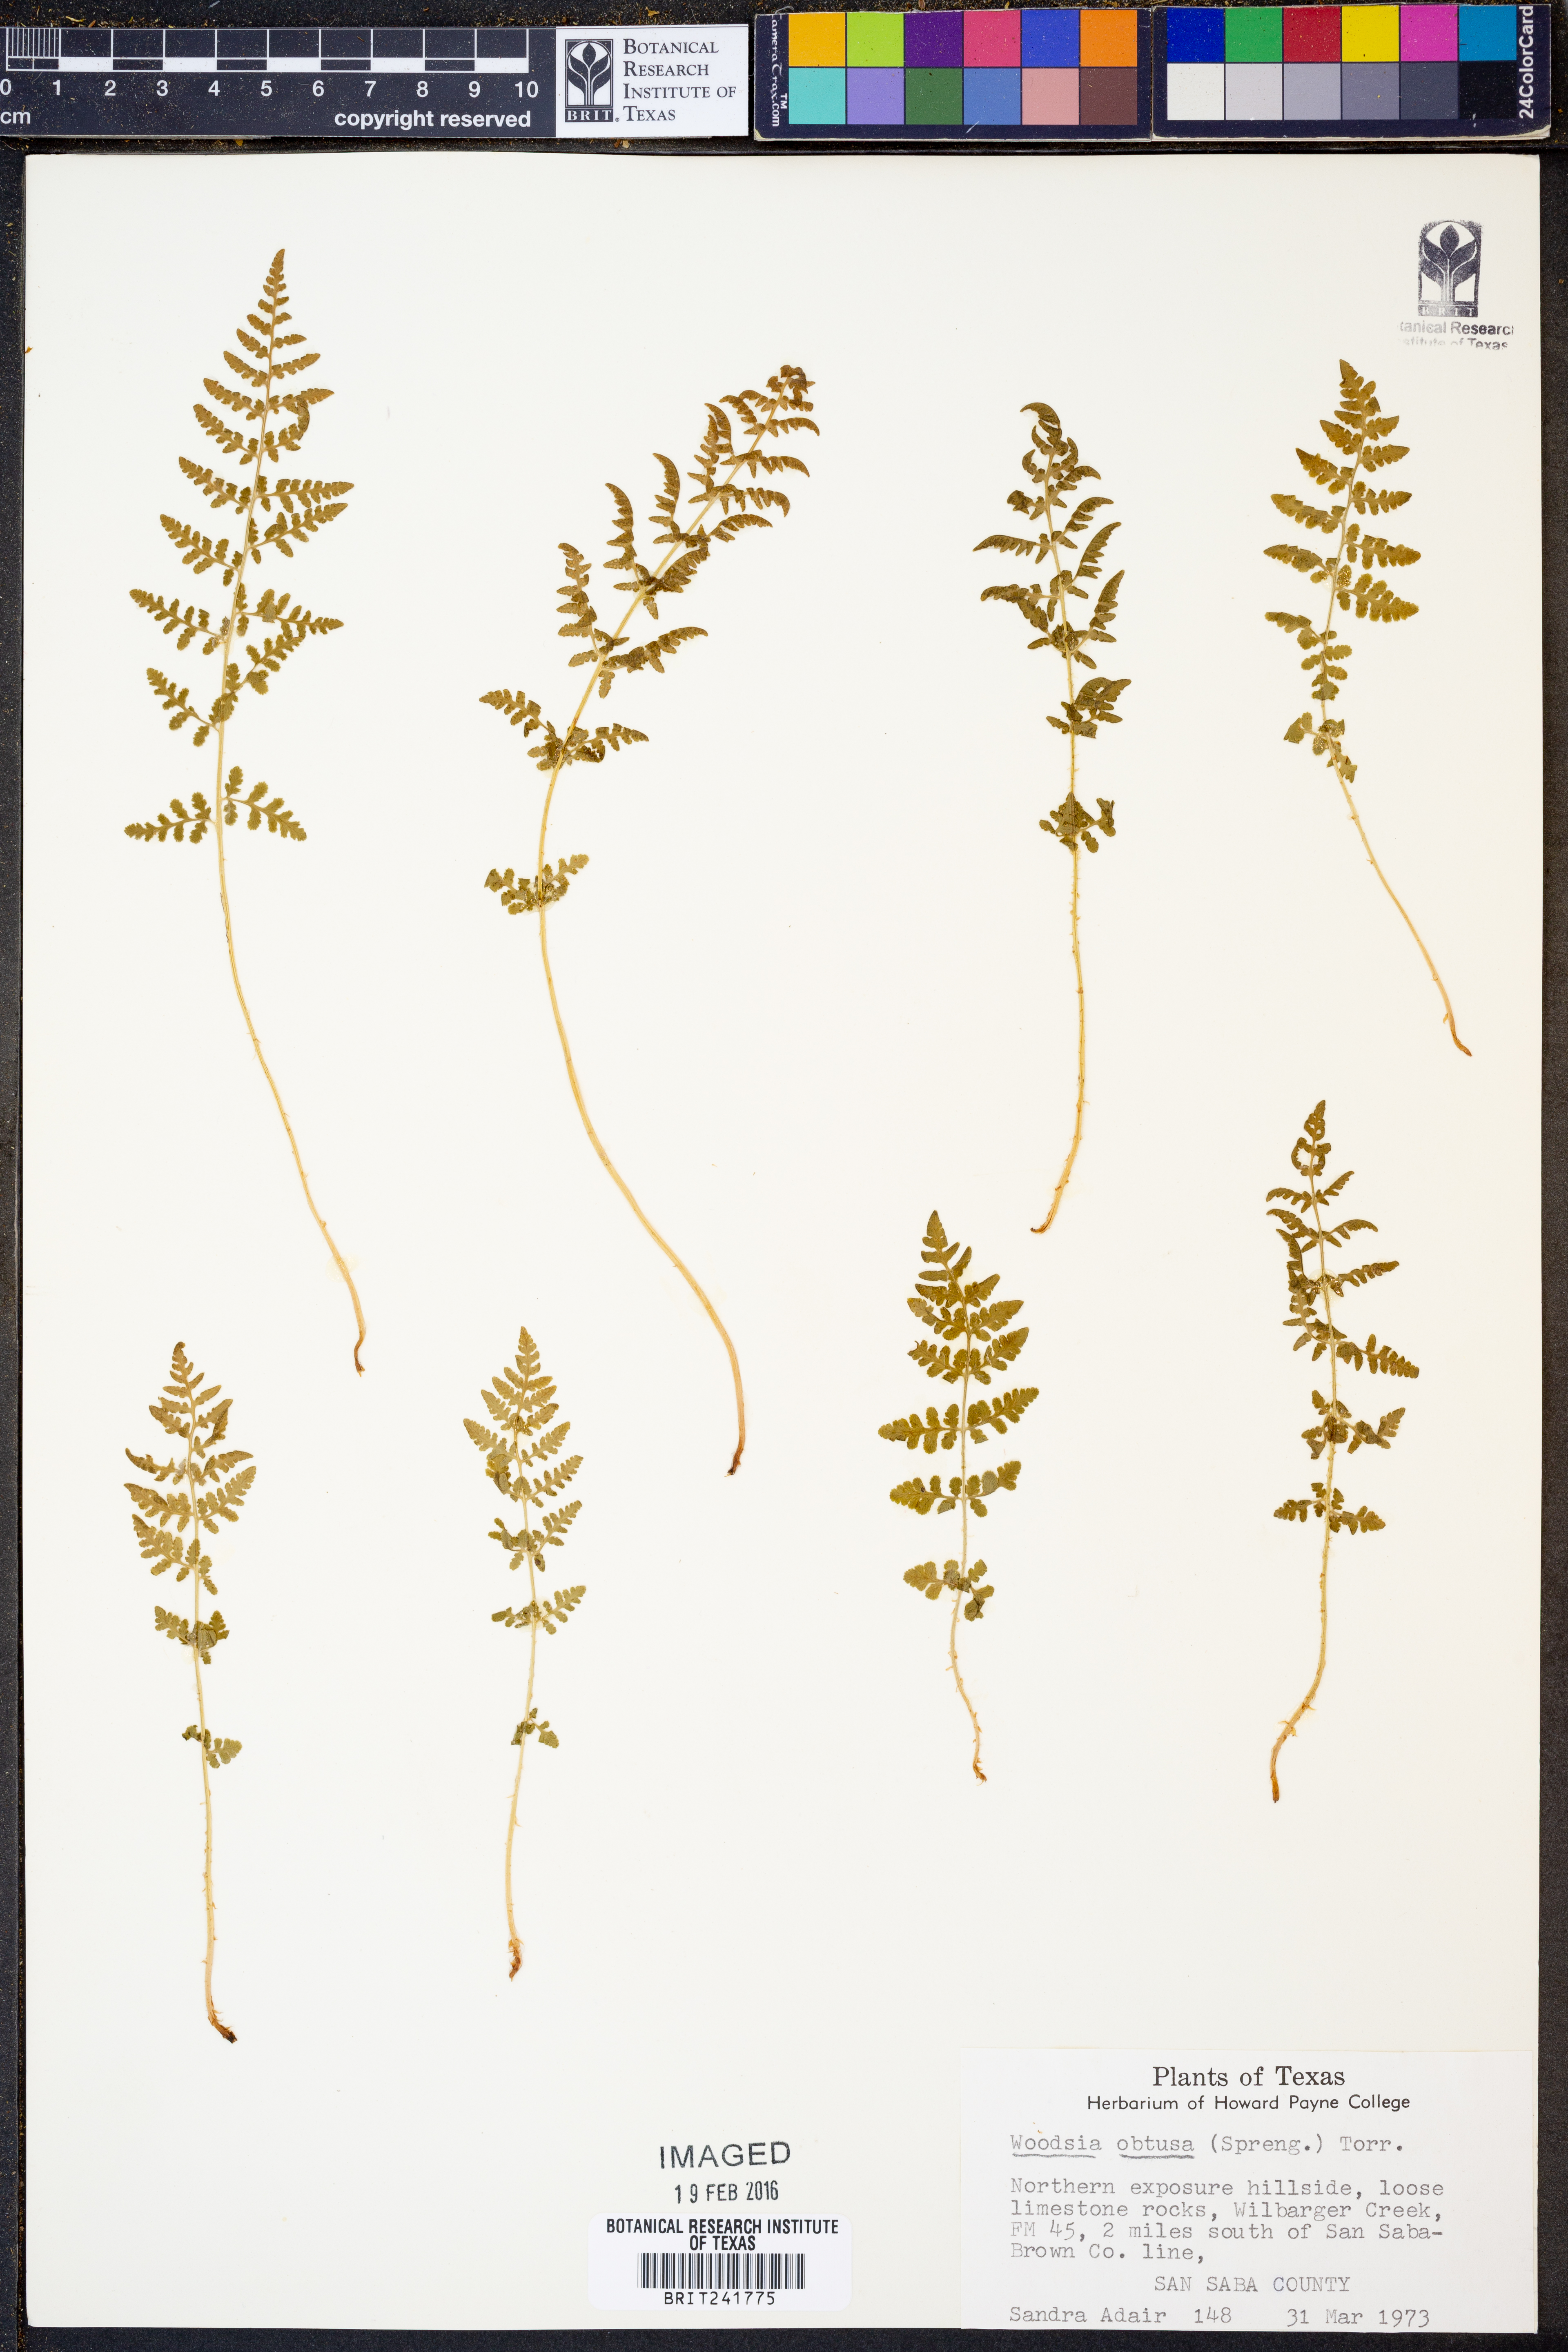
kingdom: Plantae
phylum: Tracheophyta
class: Polypodiopsida
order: Polypodiales
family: Woodsiaceae
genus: Physematium
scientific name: Physematium obtusum
